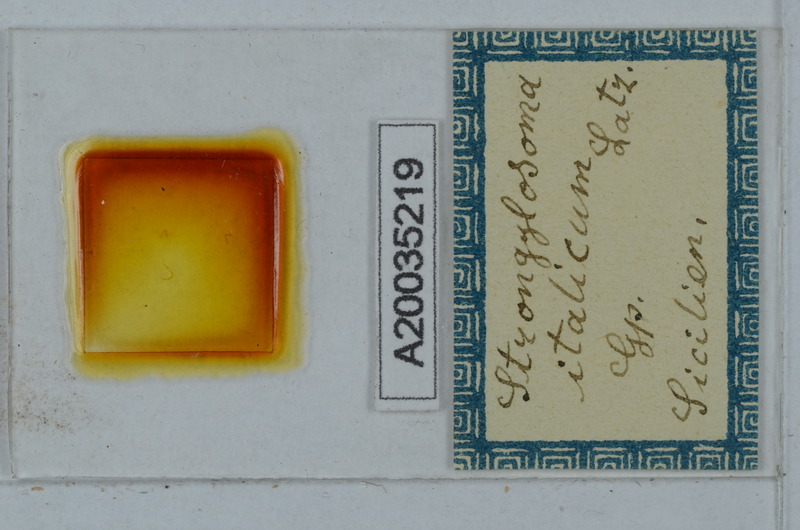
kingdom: Animalia
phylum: Arthropoda
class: Diplopoda
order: Polydesmida
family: Paradoxosomatidae
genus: Strongylosoma
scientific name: Strongylosoma italica
